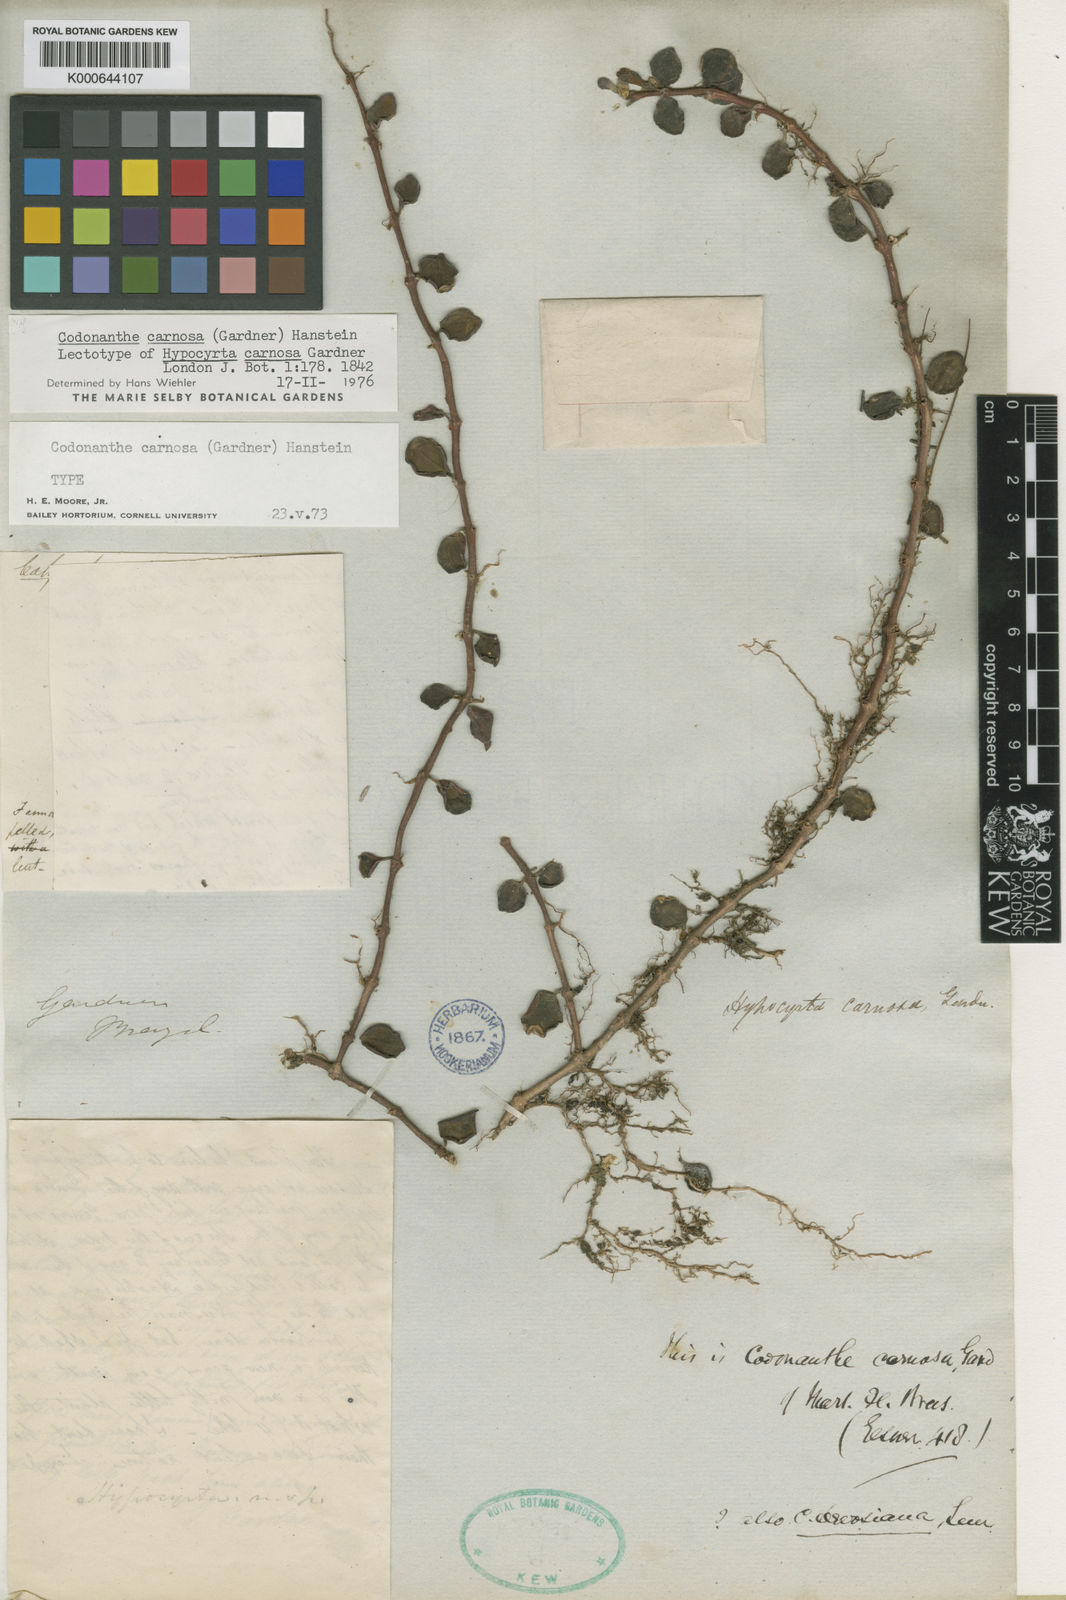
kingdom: Plantae
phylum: Tracheophyta
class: Magnoliopsida
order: Lamiales
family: Gesneriaceae
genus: Codonanthe
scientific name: Codonanthe carnosa
